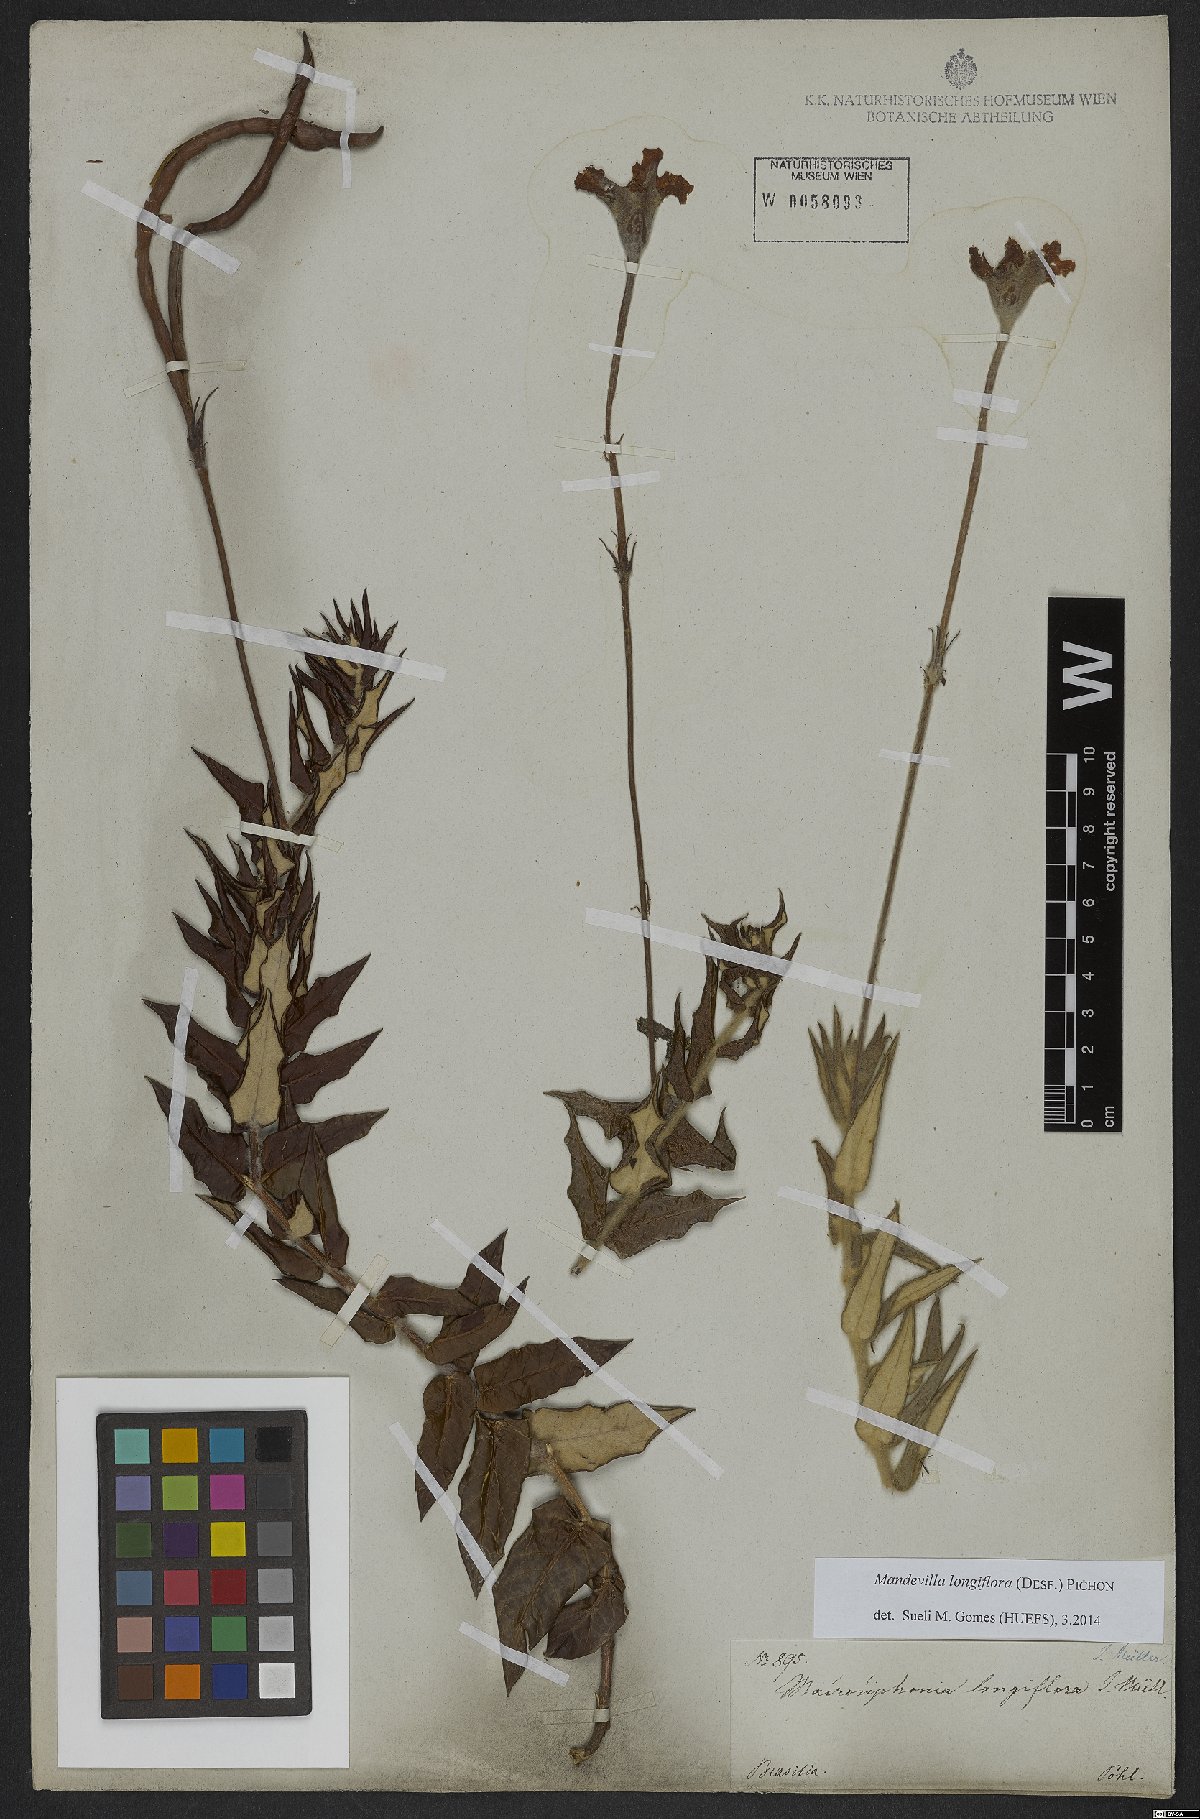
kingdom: Plantae
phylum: Tracheophyta
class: Magnoliopsida
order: Gentianales
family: Apocynaceae
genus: Mandevilla
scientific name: Mandevilla longiflora
